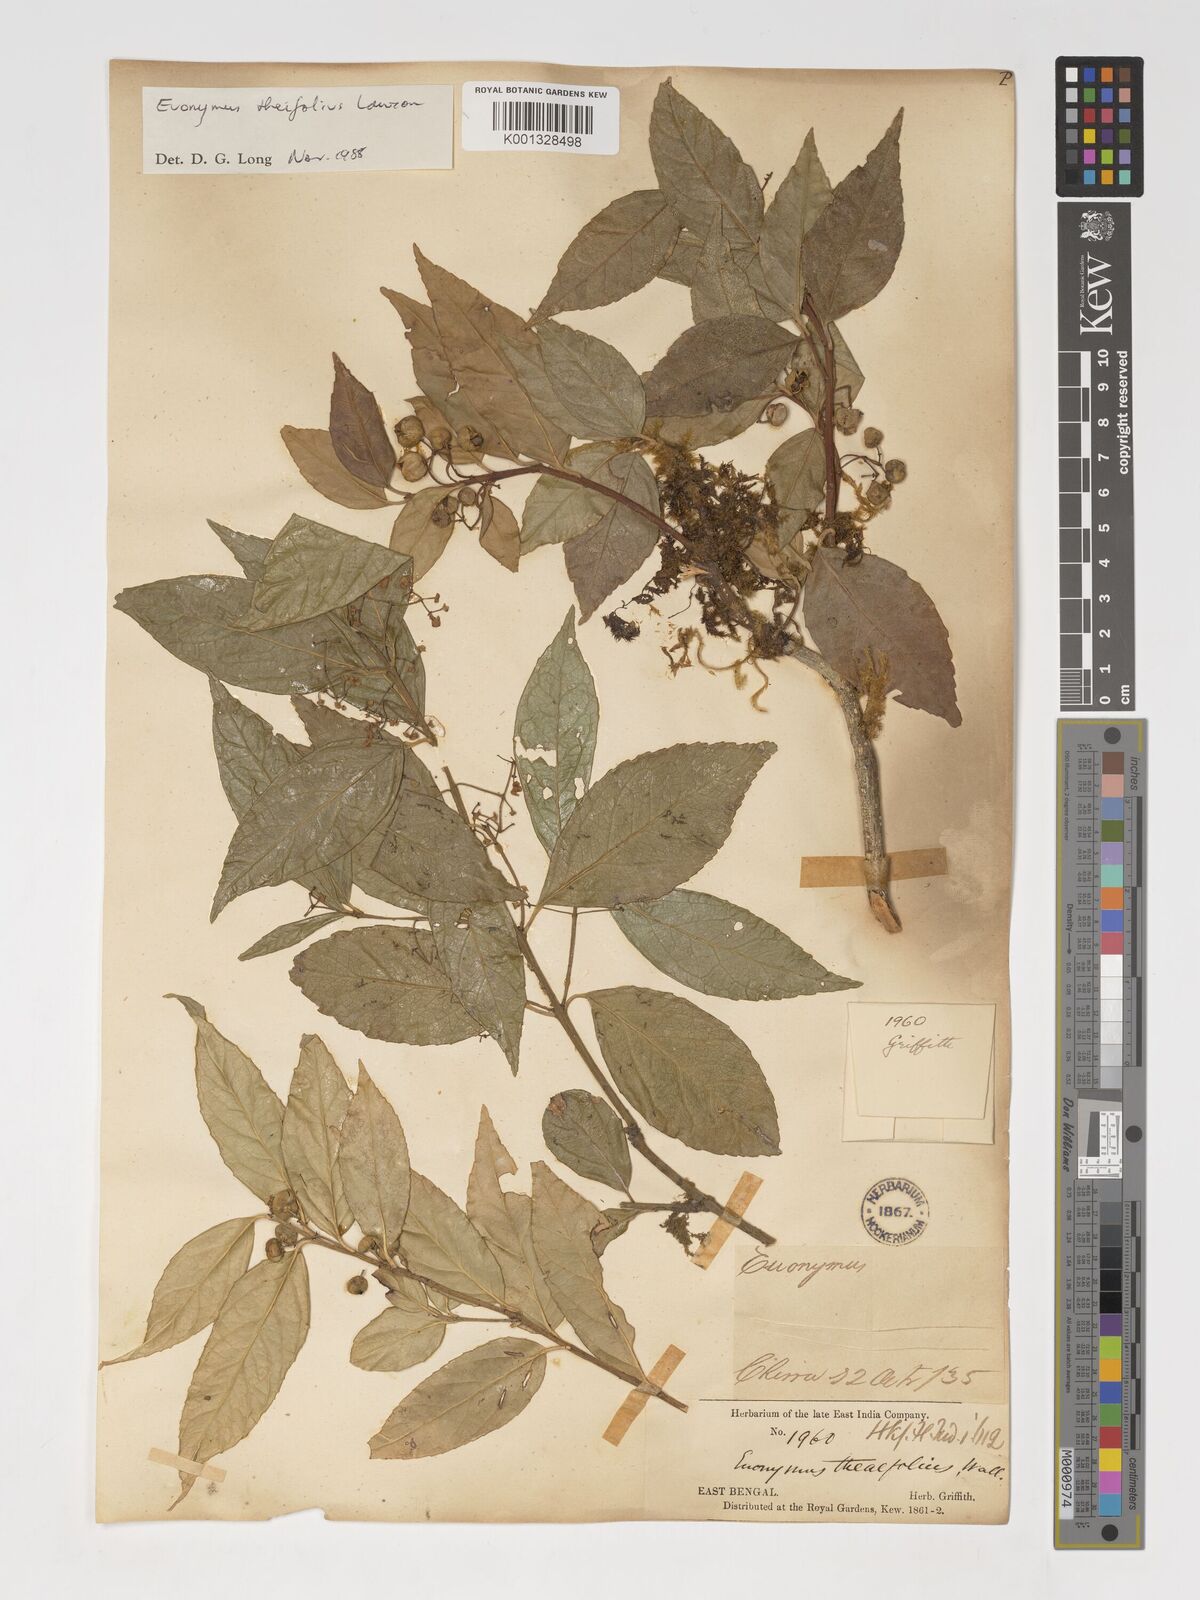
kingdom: Plantae
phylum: Tracheophyta
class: Magnoliopsida
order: Celastrales
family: Celastraceae
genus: Euonymus
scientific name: Euonymus theifolius
